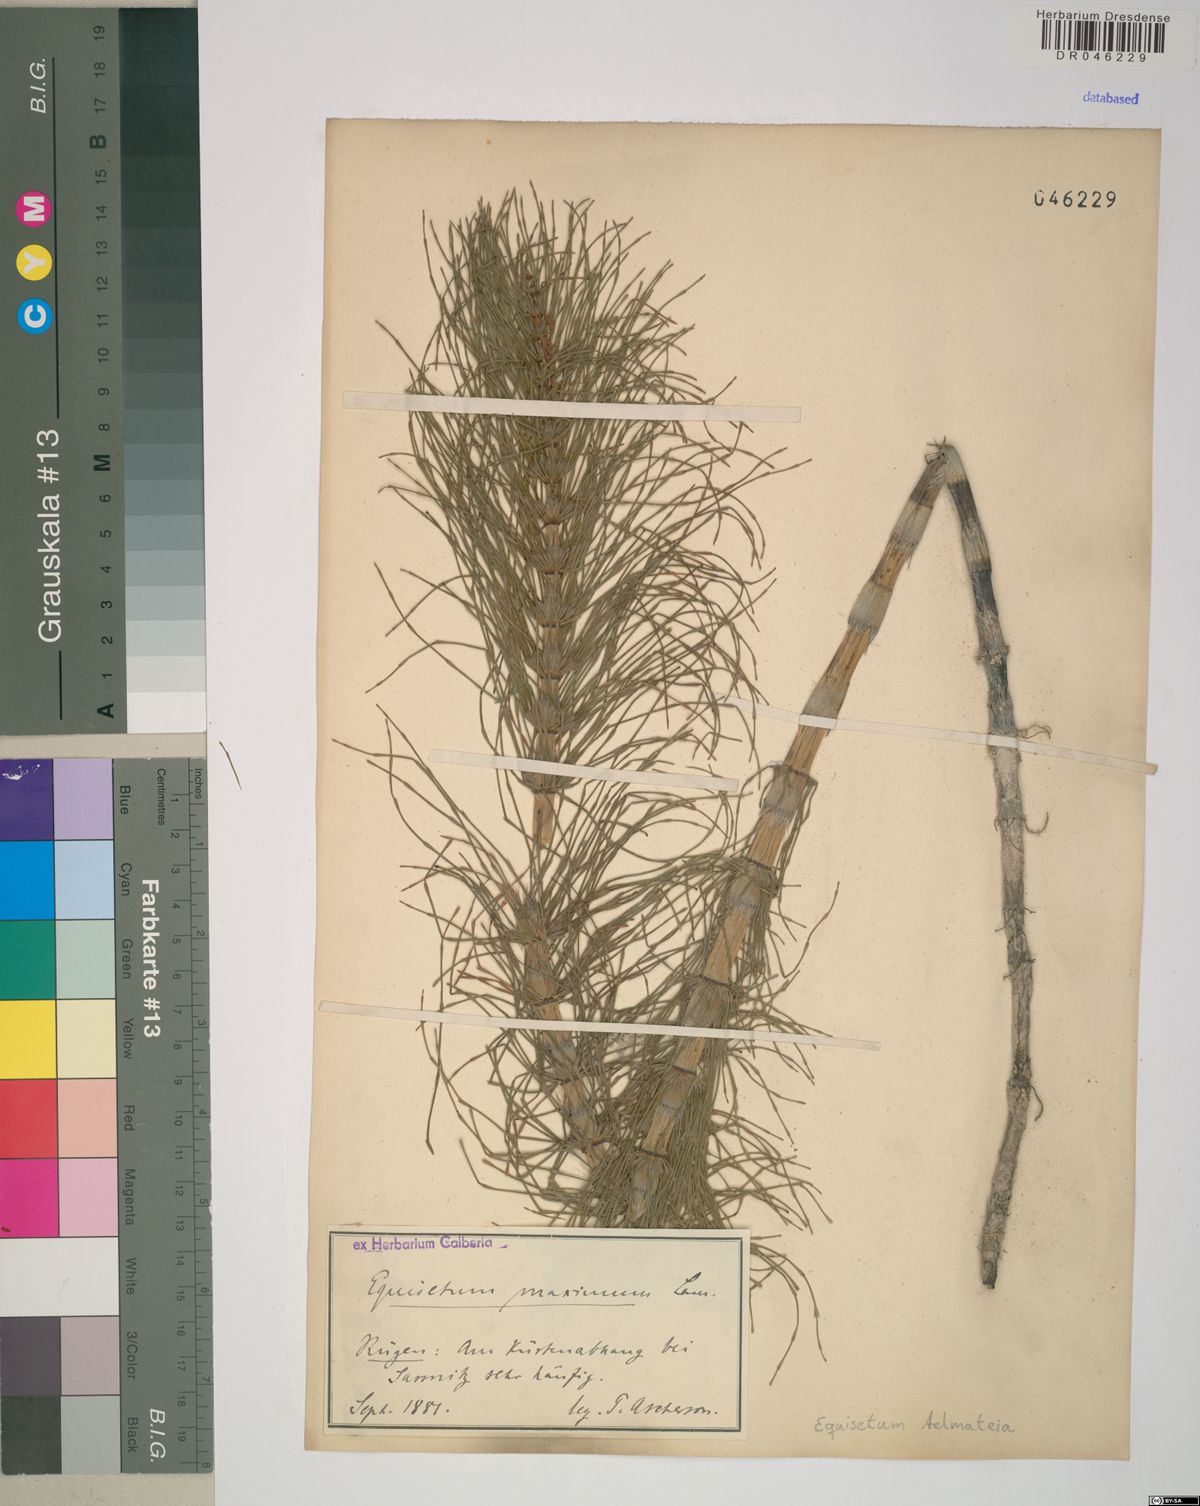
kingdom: Plantae
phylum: Tracheophyta
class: Polypodiopsida
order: Equisetales
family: Equisetaceae
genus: Equisetum
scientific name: Equisetum telmateia
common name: Great horsetail
